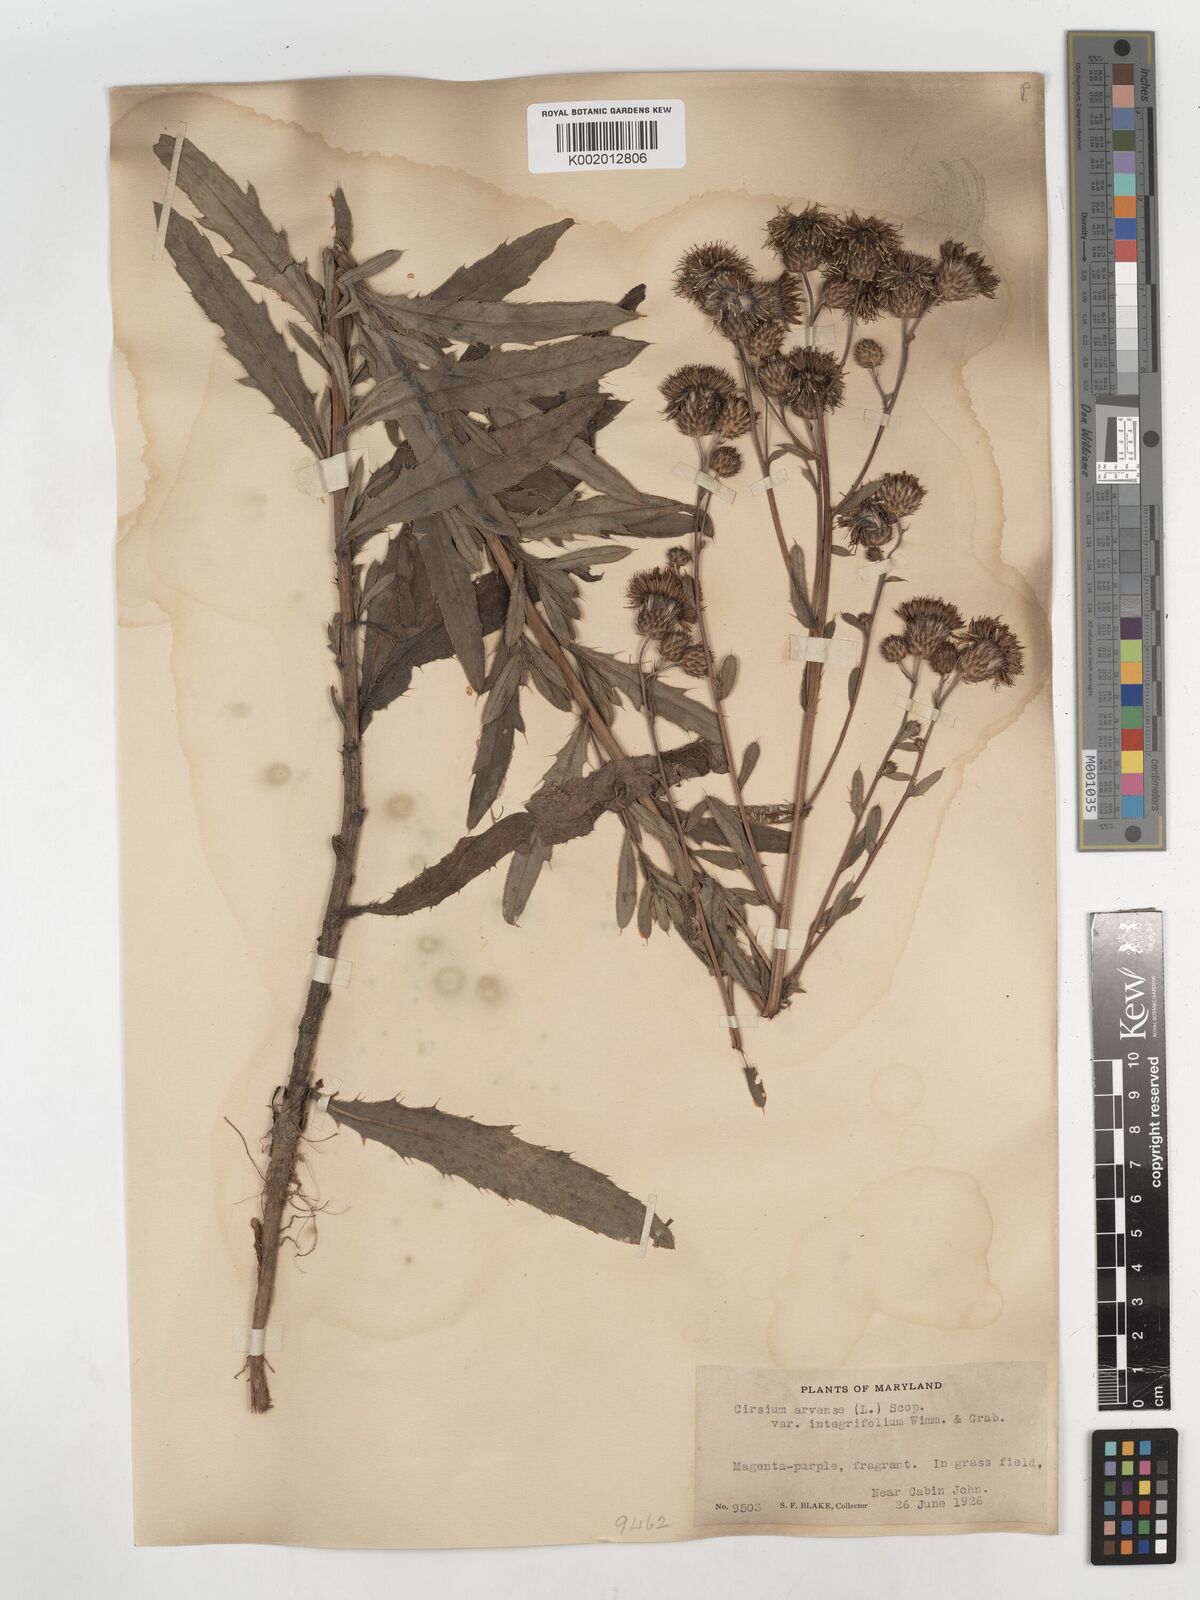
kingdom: Plantae
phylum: Tracheophyta
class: Magnoliopsida
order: Asterales
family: Asteraceae
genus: Cirsium
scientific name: Cirsium arvense
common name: Creeping thistle
